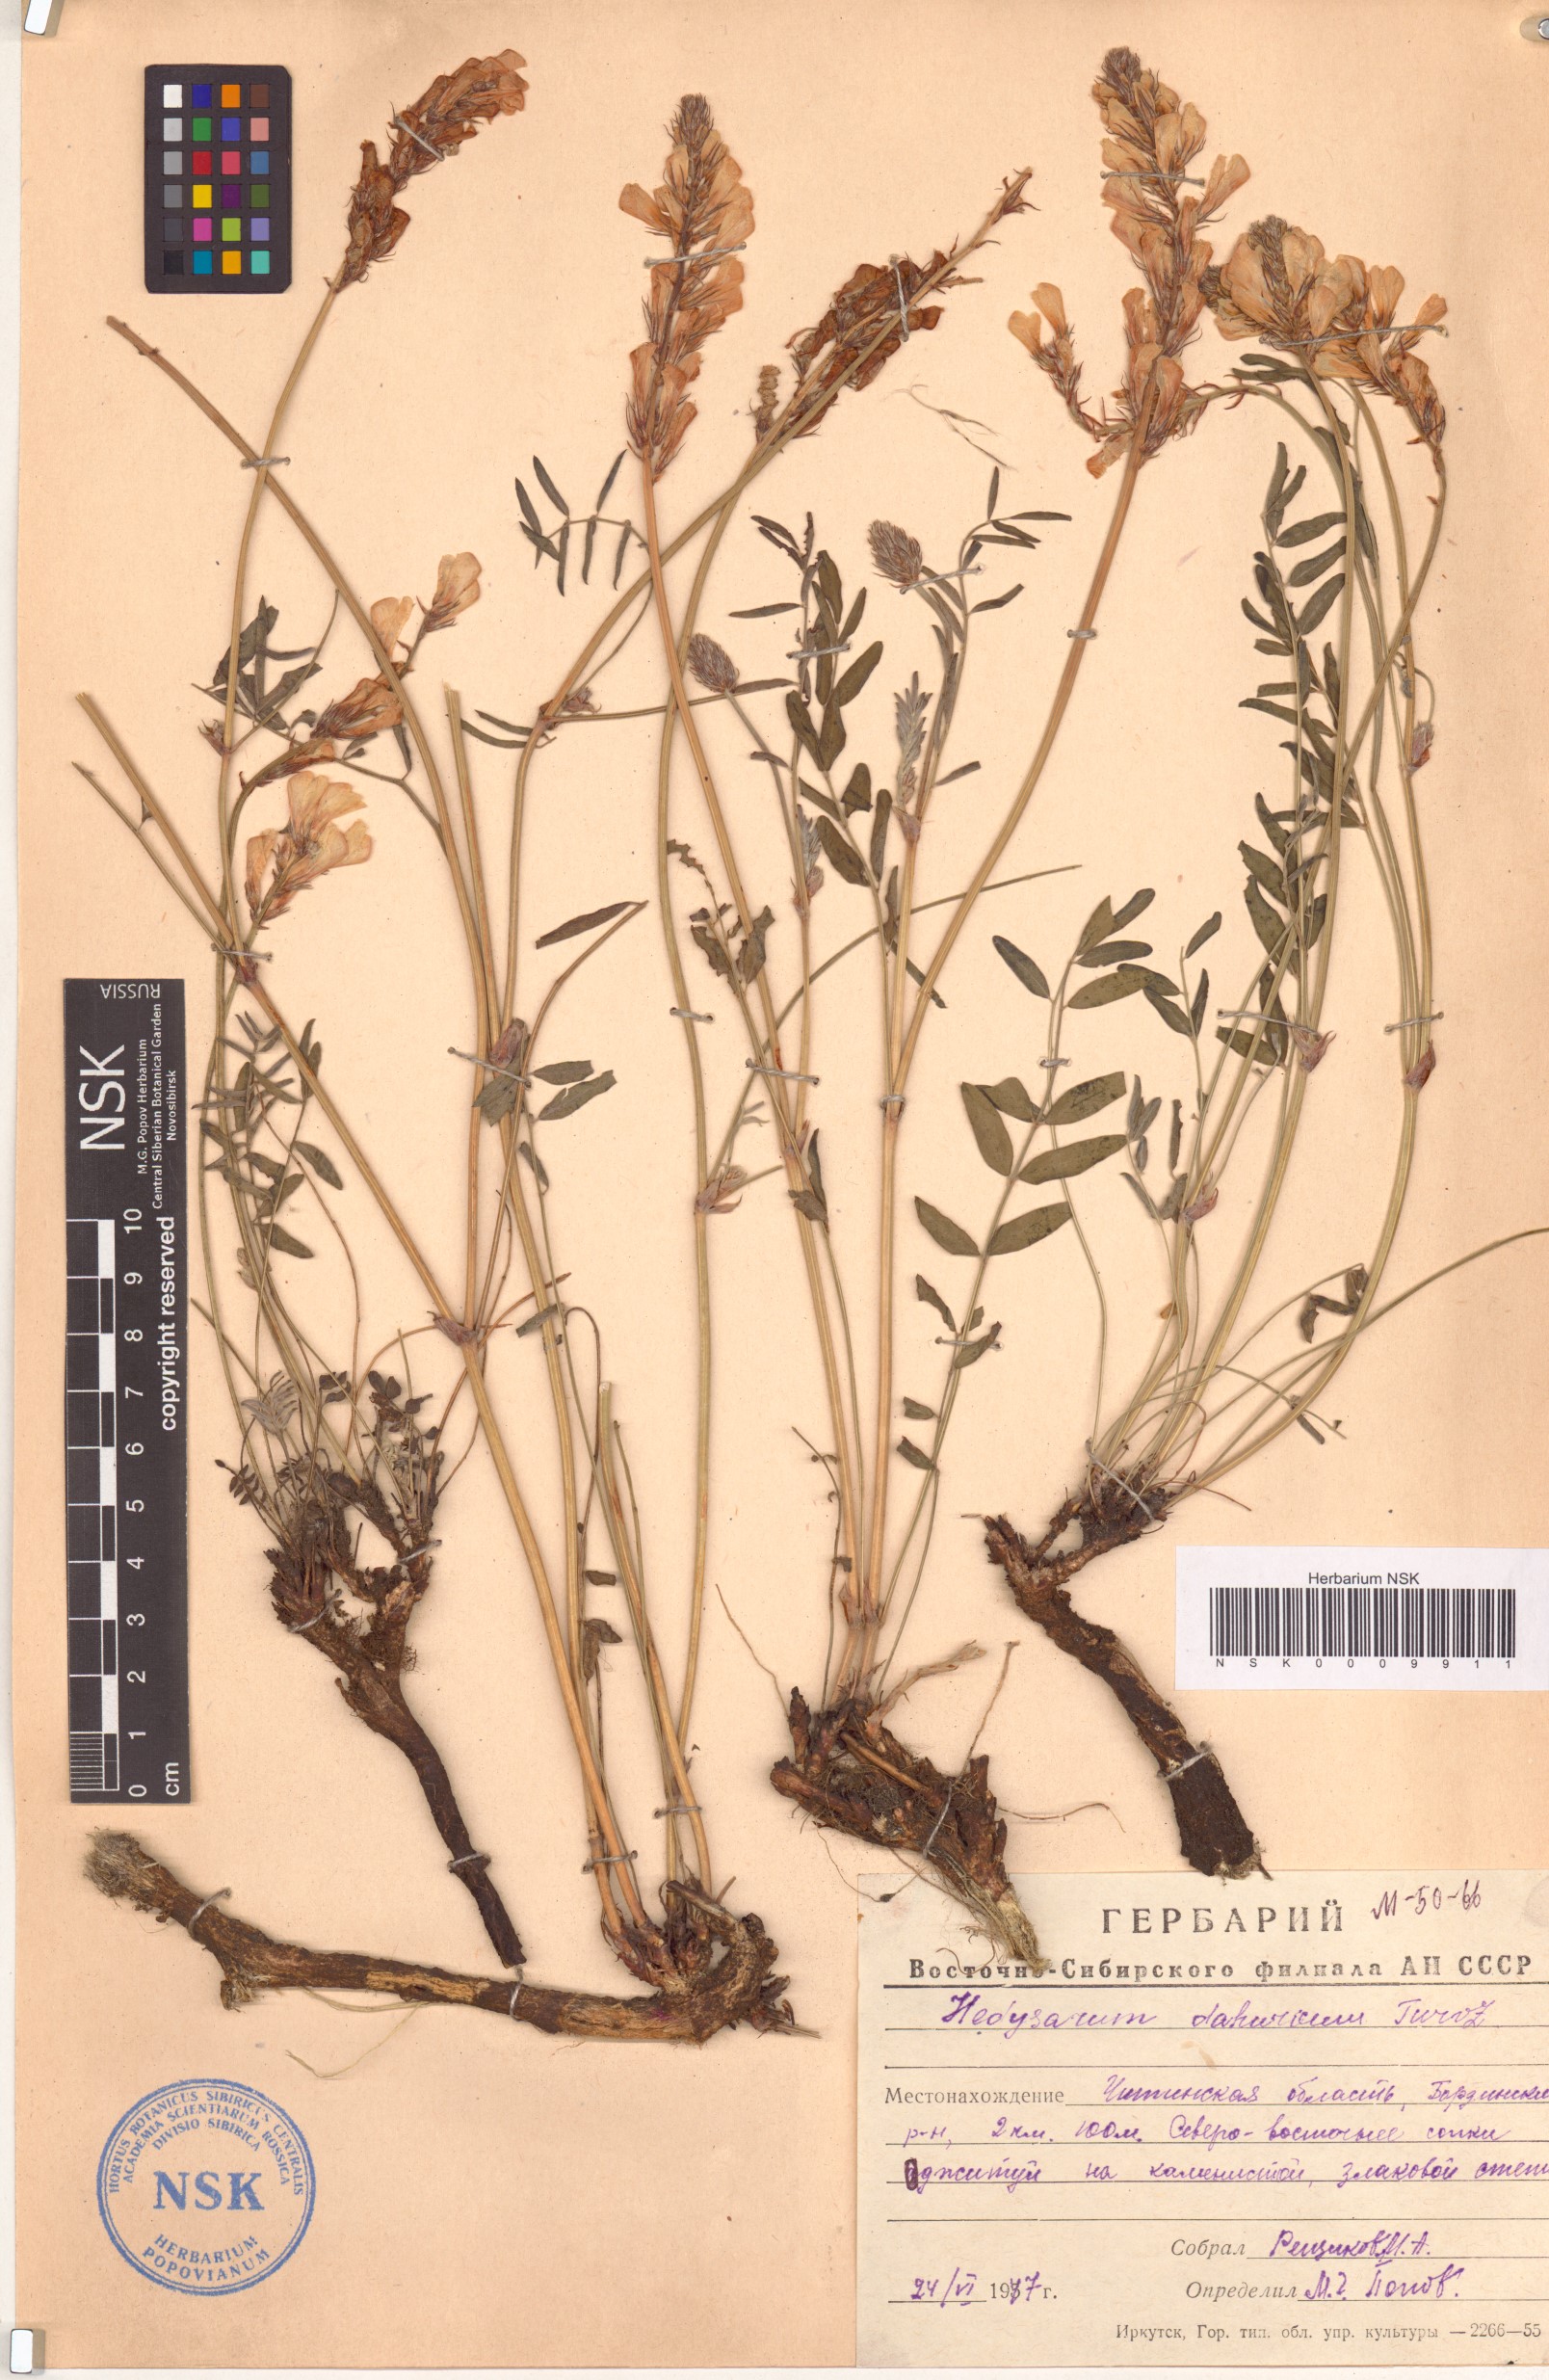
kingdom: Plantae
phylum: Tracheophyta
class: Magnoliopsida
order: Fabales
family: Fabaceae
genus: Hedysarum
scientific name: Hedysarum dahuricum
